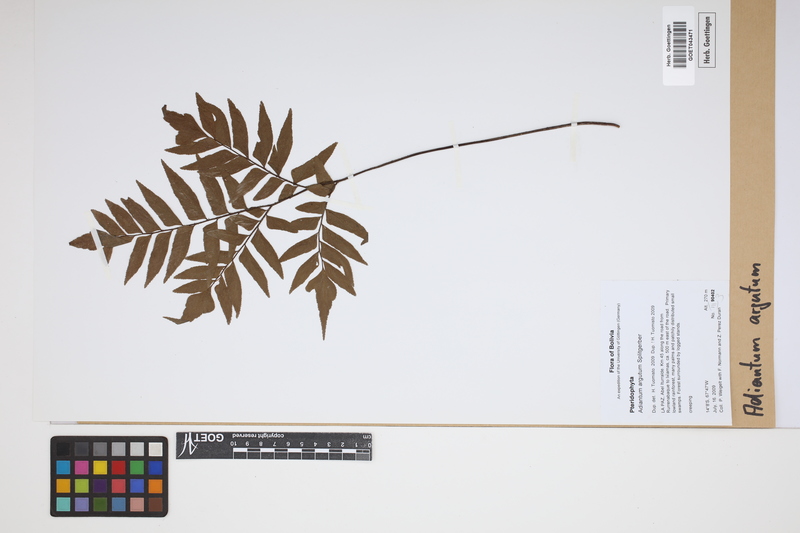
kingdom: Plantae
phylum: Tracheophyta
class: Polypodiopsida
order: Polypodiales
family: Pteridaceae
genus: Adiantum
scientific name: Adiantum argutum
